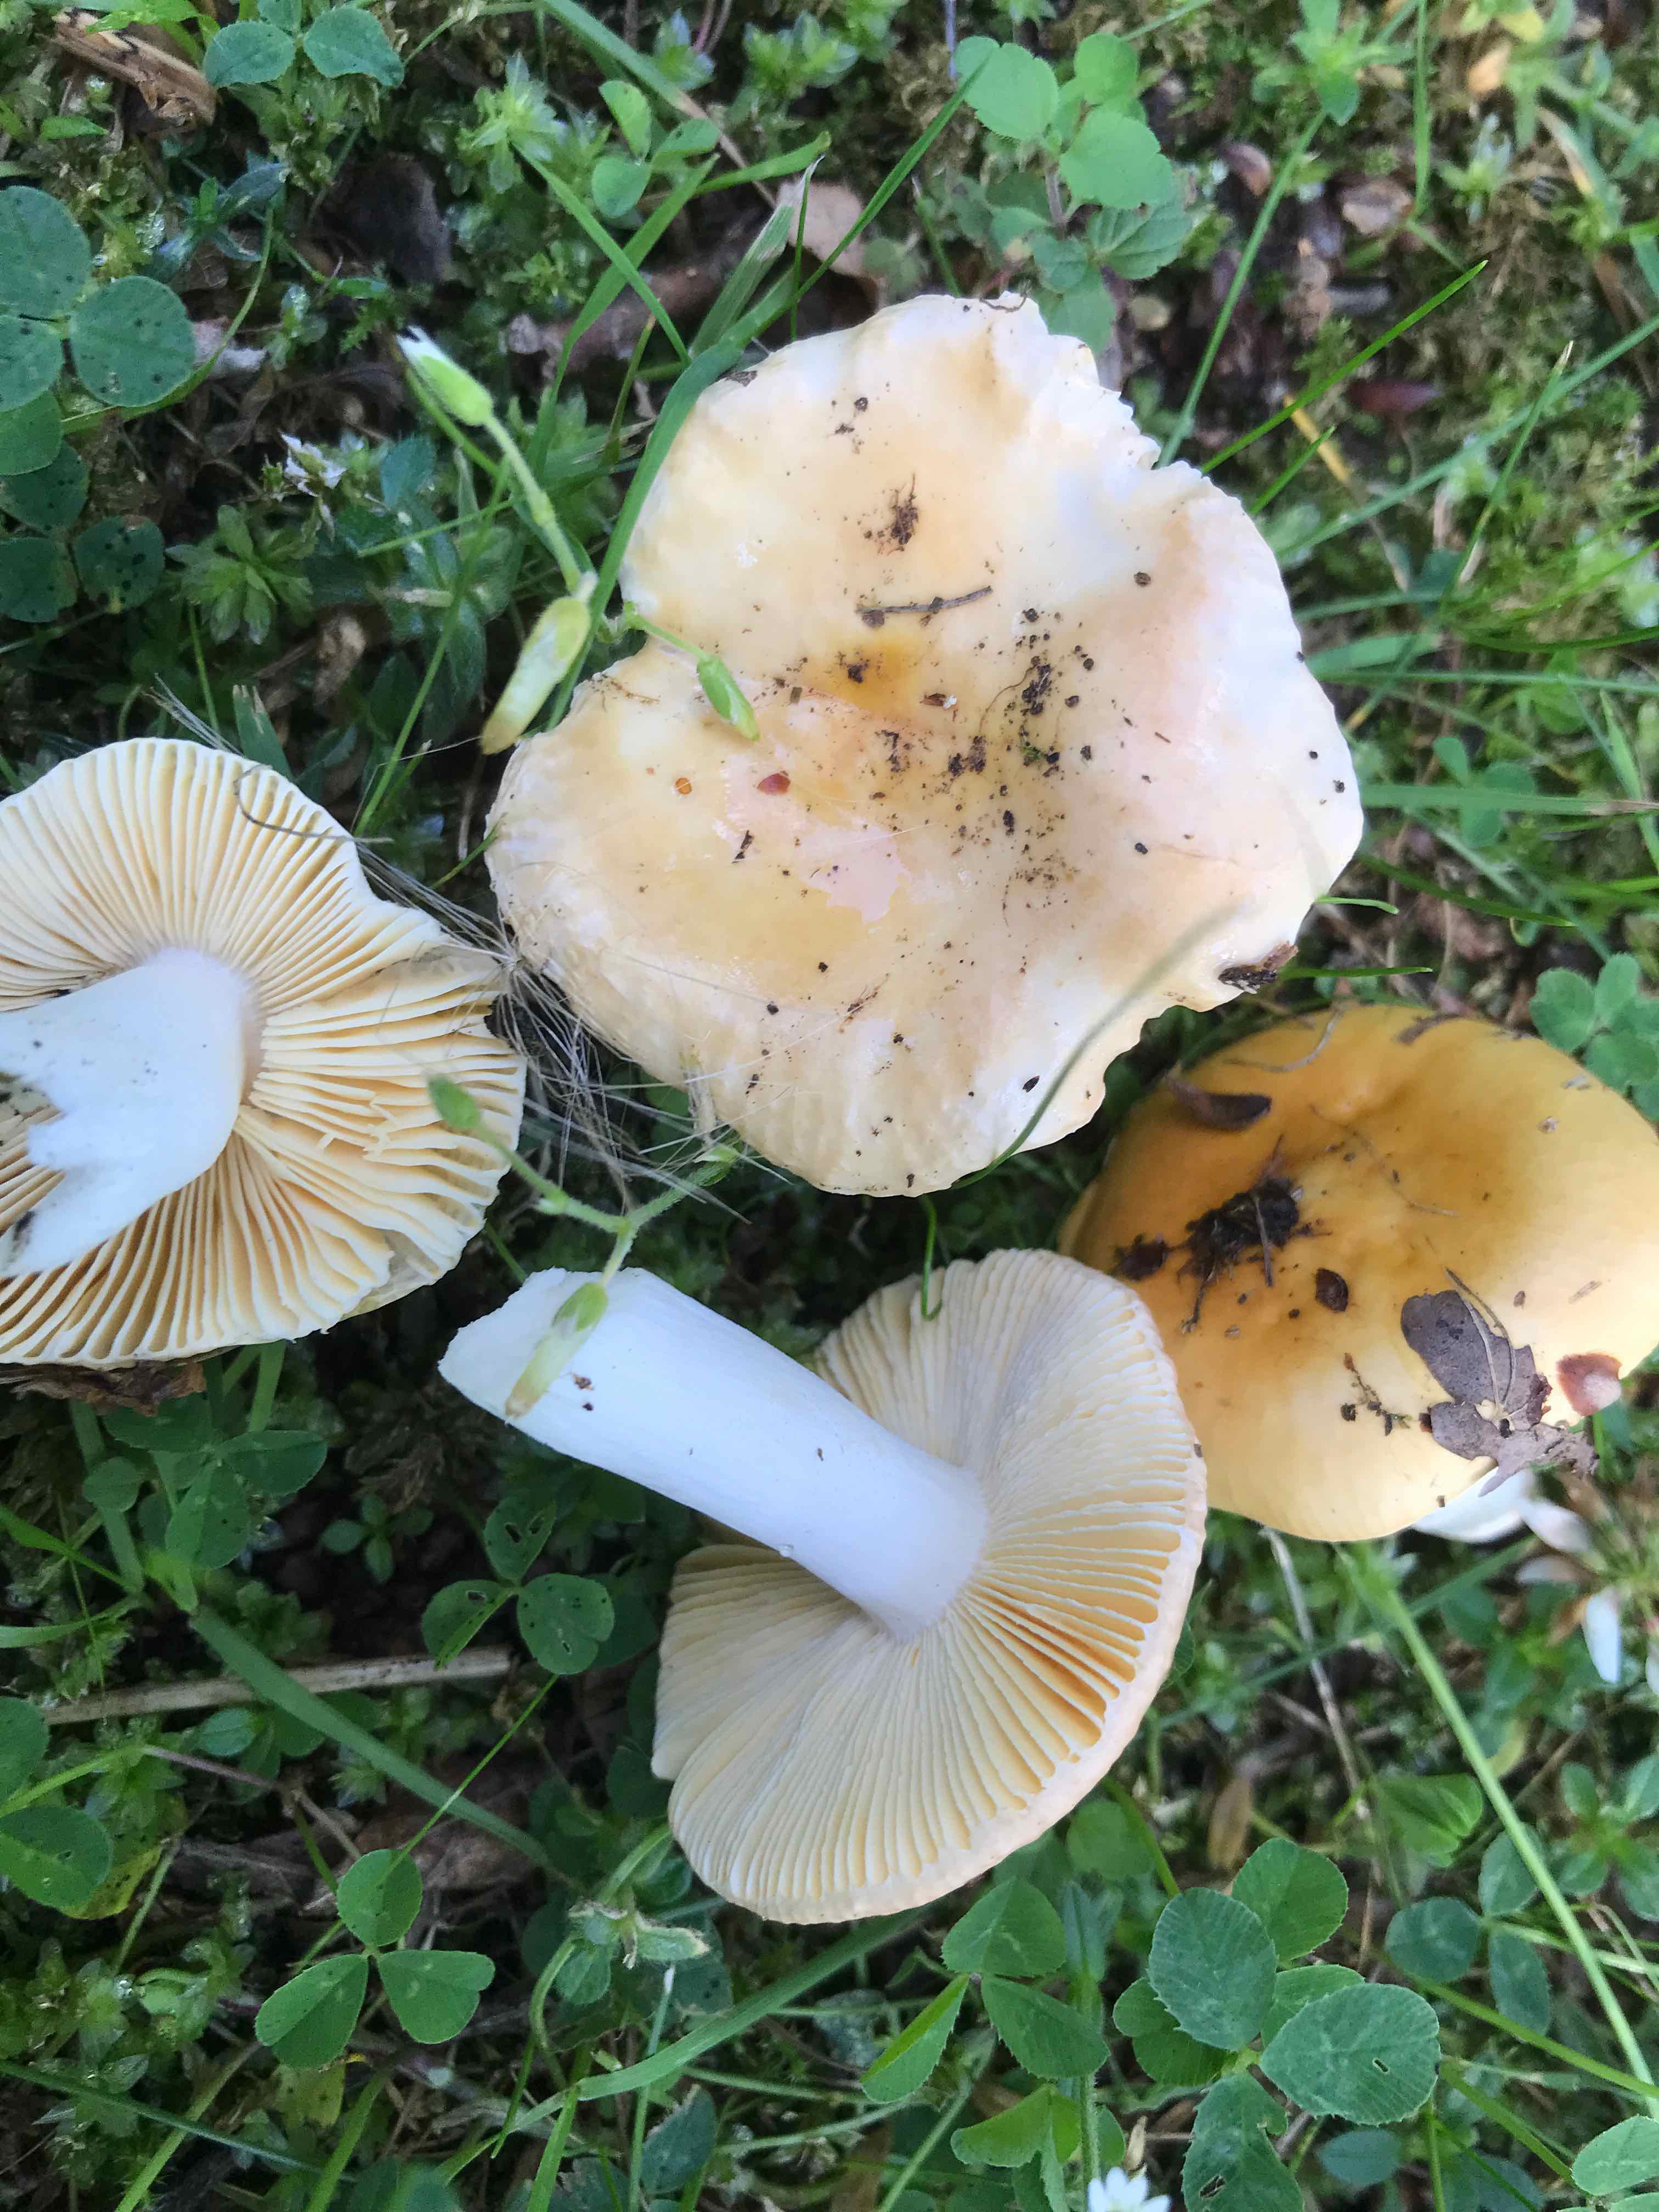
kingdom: Fungi
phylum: Basidiomycota
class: Agaricomycetes
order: Russulales
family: Russulaceae
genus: Russula
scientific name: Russula odorata
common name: duft-skørhat
